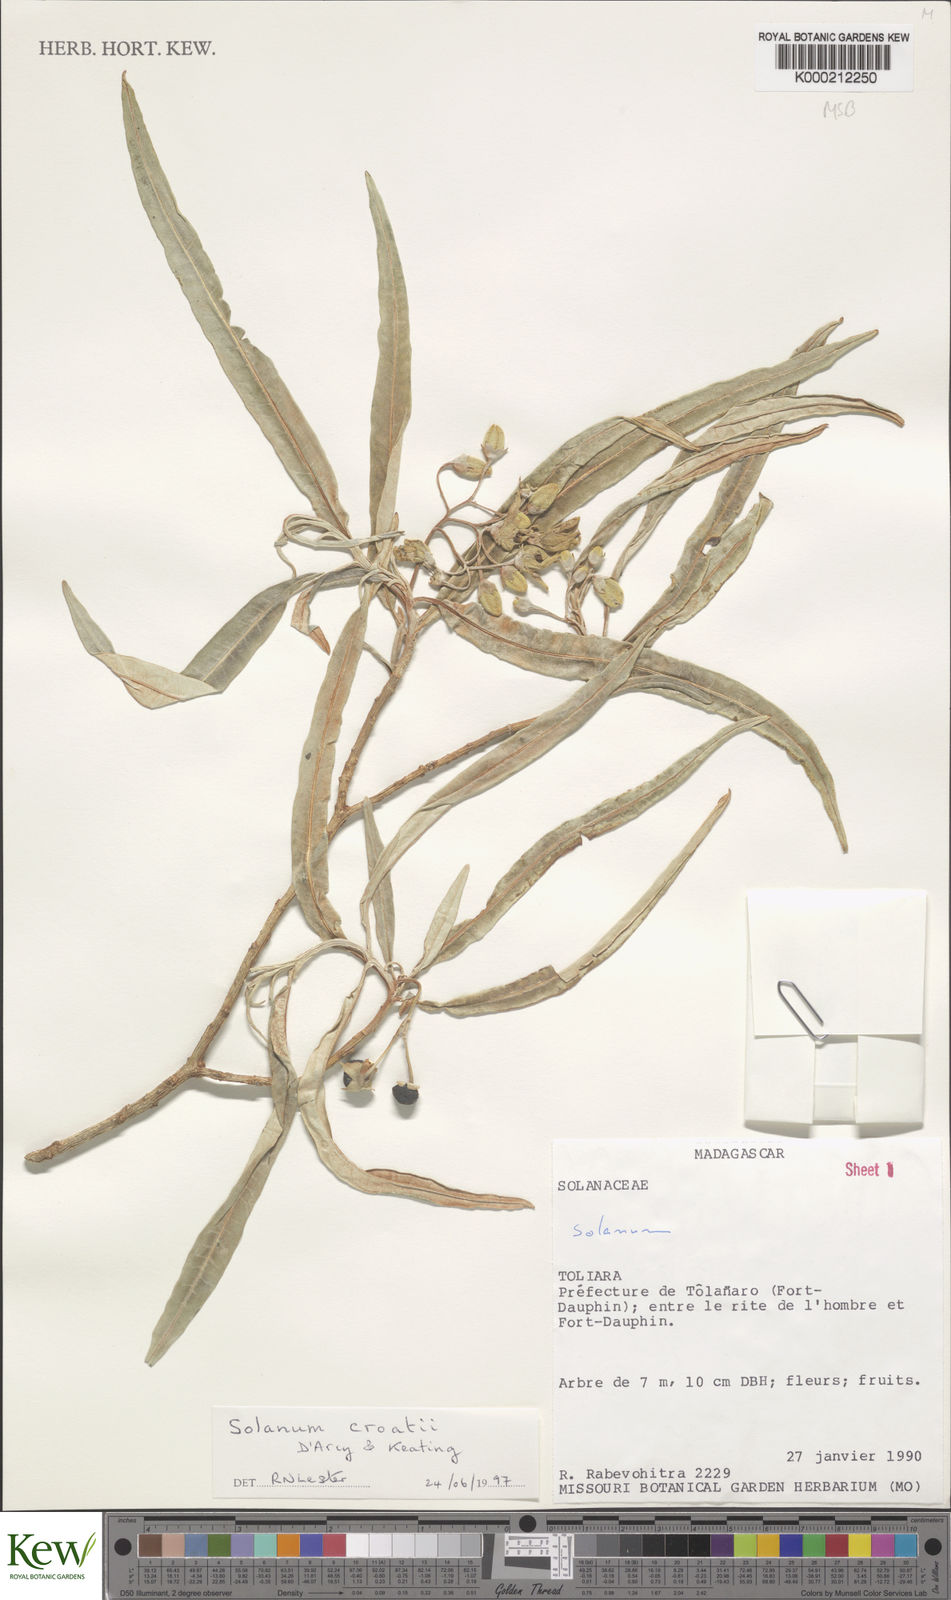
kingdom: Plantae
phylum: Tracheophyta
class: Magnoliopsida
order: Solanales
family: Solanaceae
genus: Solanum
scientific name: Solanum croatii
